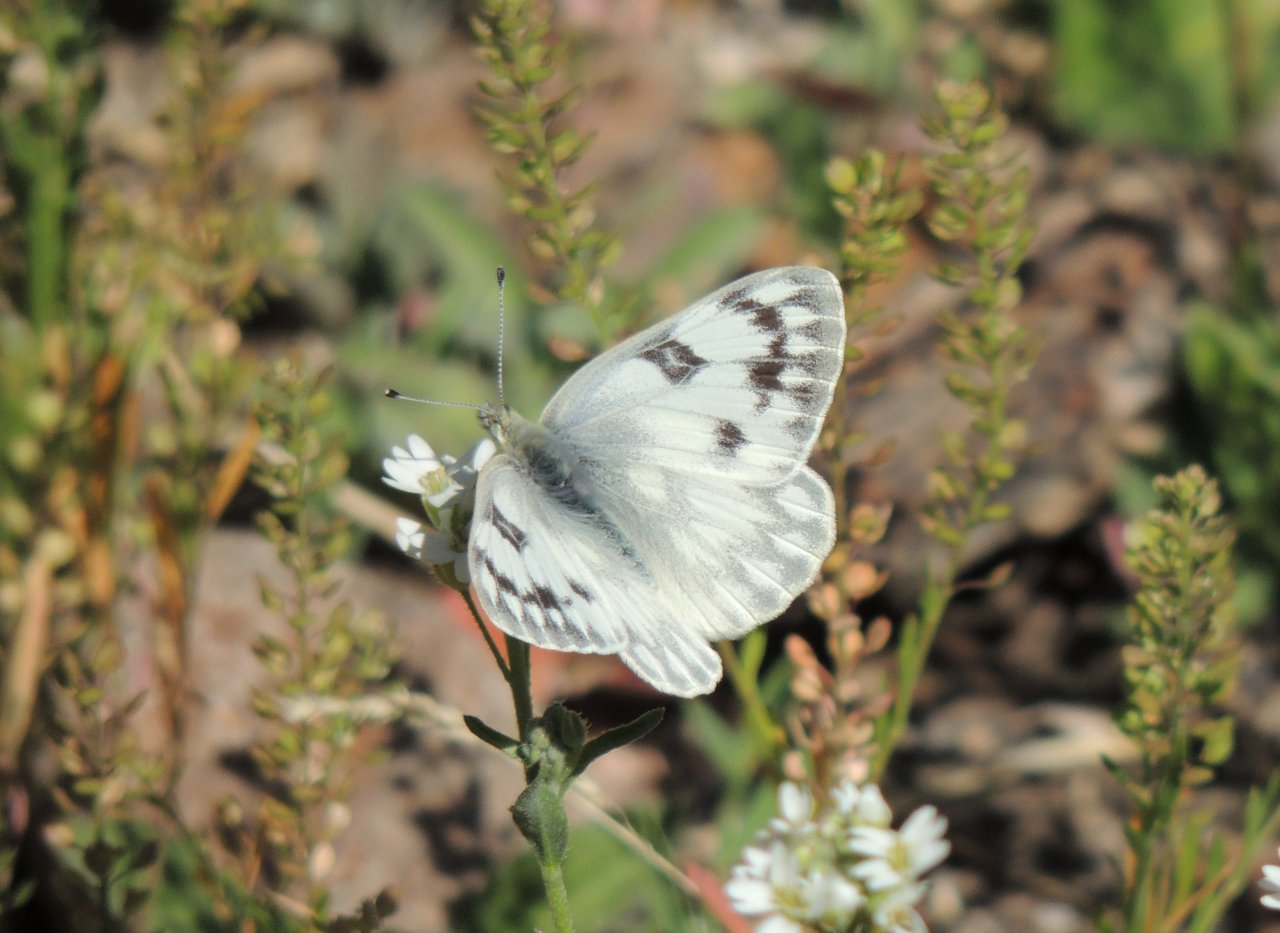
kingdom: Animalia
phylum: Arthropoda
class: Insecta
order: Lepidoptera
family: Pieridae
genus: Pontia
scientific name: Pontia occidentalis
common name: Western White
